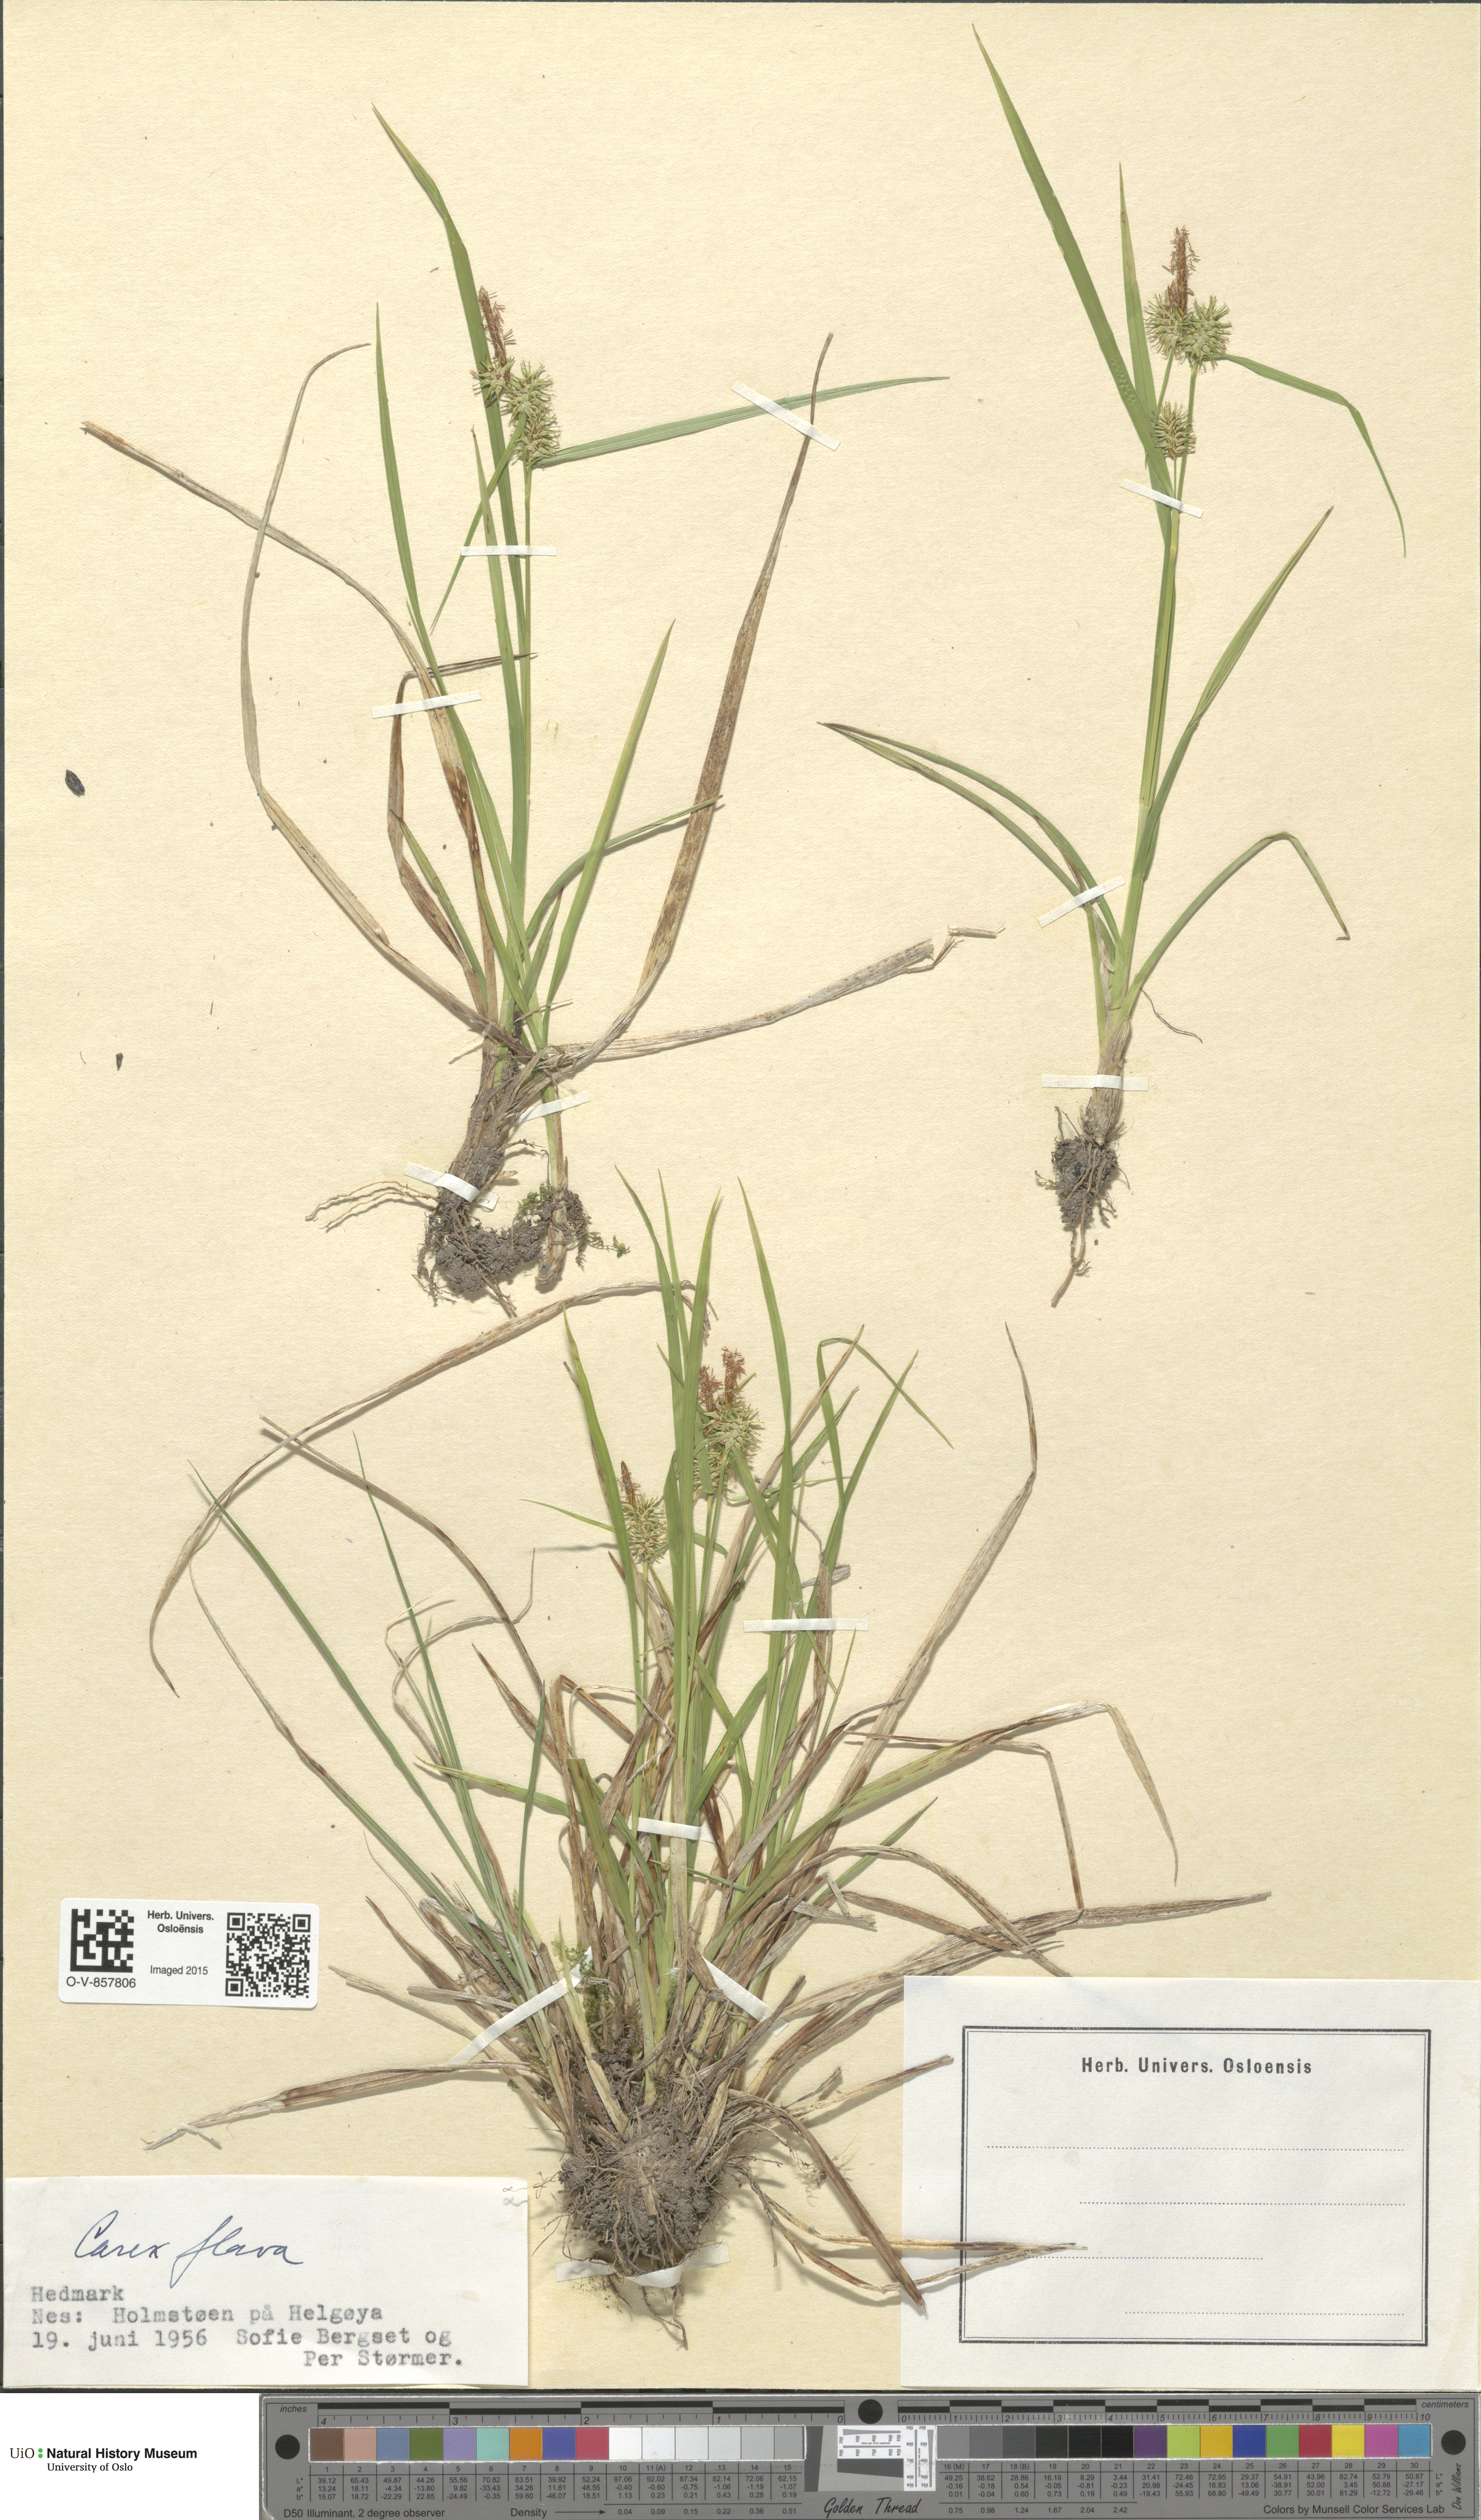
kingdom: Plantae
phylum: Tracheophyta
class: Liliopsida
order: Poales
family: Cyperaceae
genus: Carex
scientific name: Carex flava
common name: Large yellow-sedge
